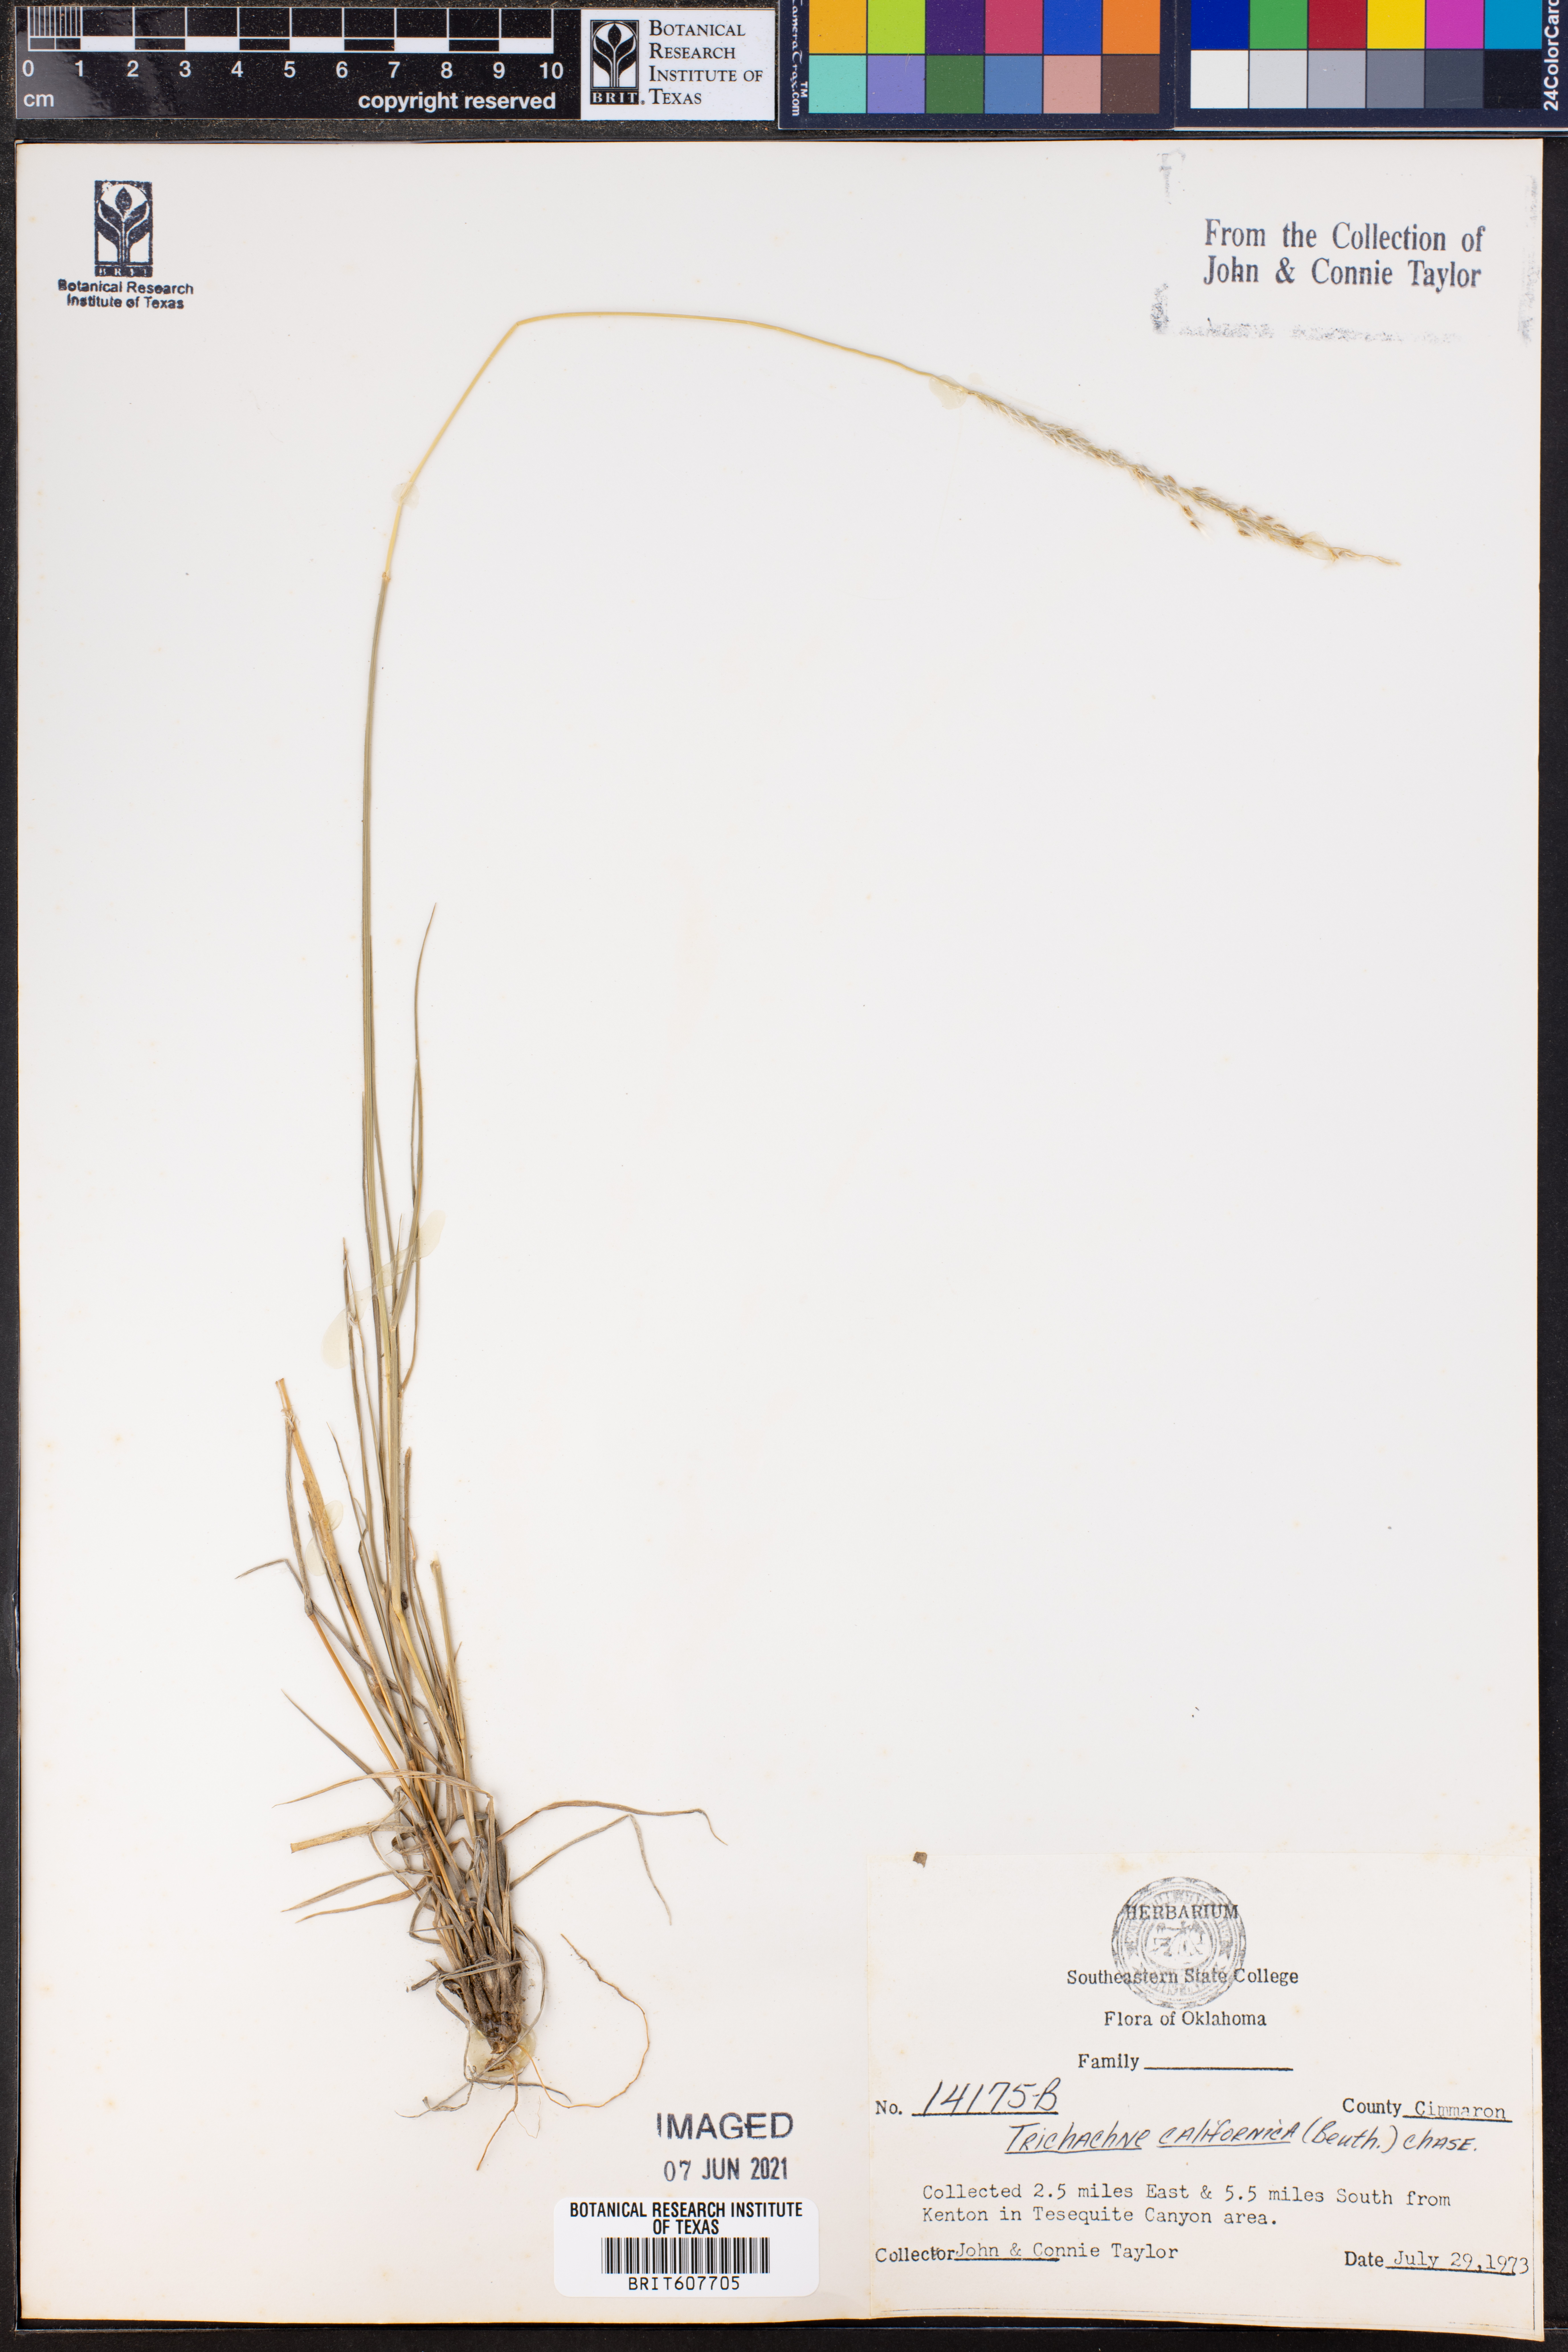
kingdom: Plantae
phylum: Tracheophyta
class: Liliopsida
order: Poales
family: Poaceae
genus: Digitaria
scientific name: Digitaria californica
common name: Arizona cottontop
